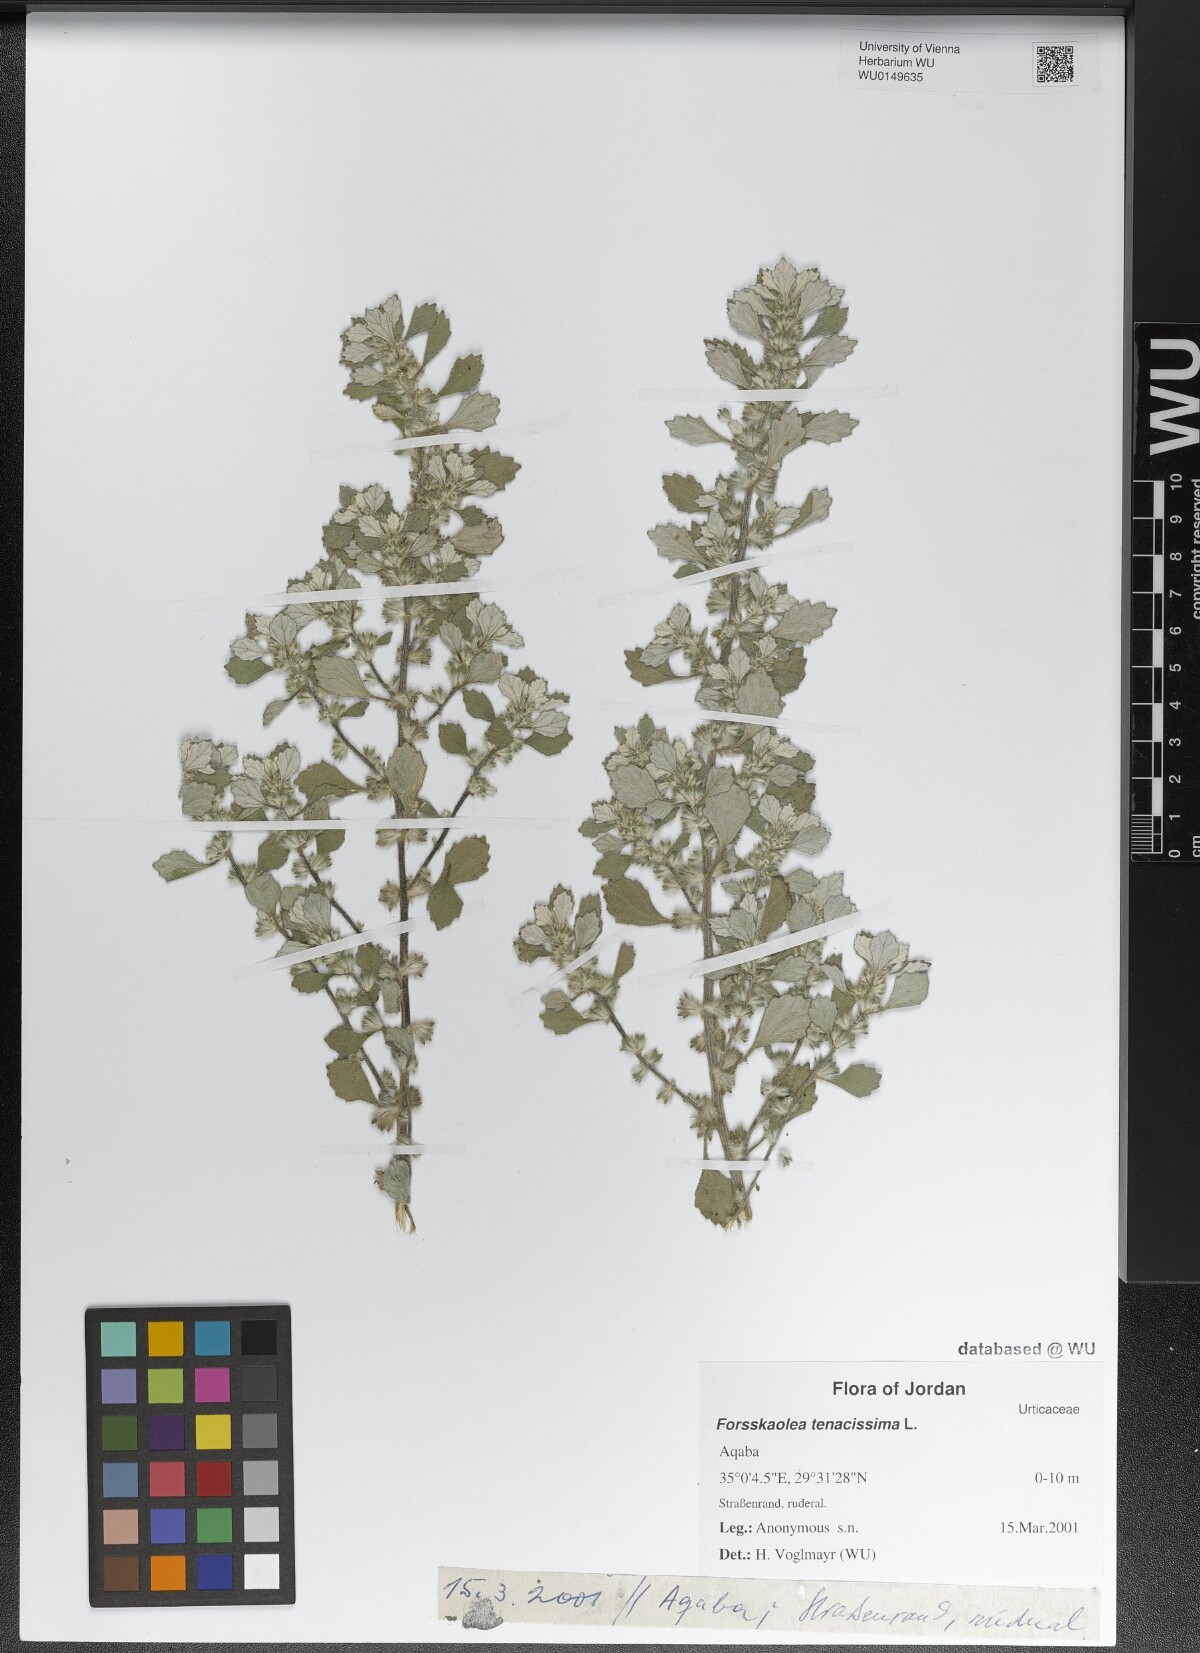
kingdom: Plantae
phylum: Tracheophyta
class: Magnoliopsida
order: Rosales
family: Urticaceae
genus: Forsskaolea
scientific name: Forsskaolea tenacissima
